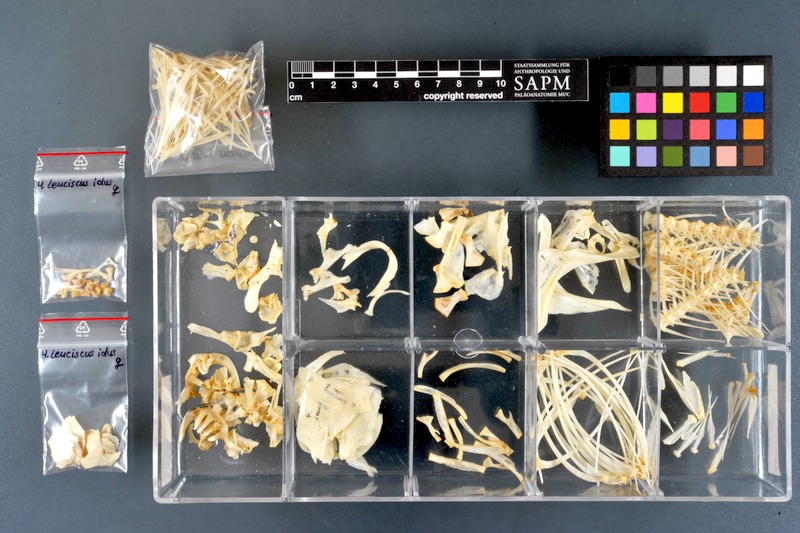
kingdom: Animalia
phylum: Chordata
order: Cypriniformes
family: Cyprinidae
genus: Leuciscus
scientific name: Leuciscus idus
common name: Ide
